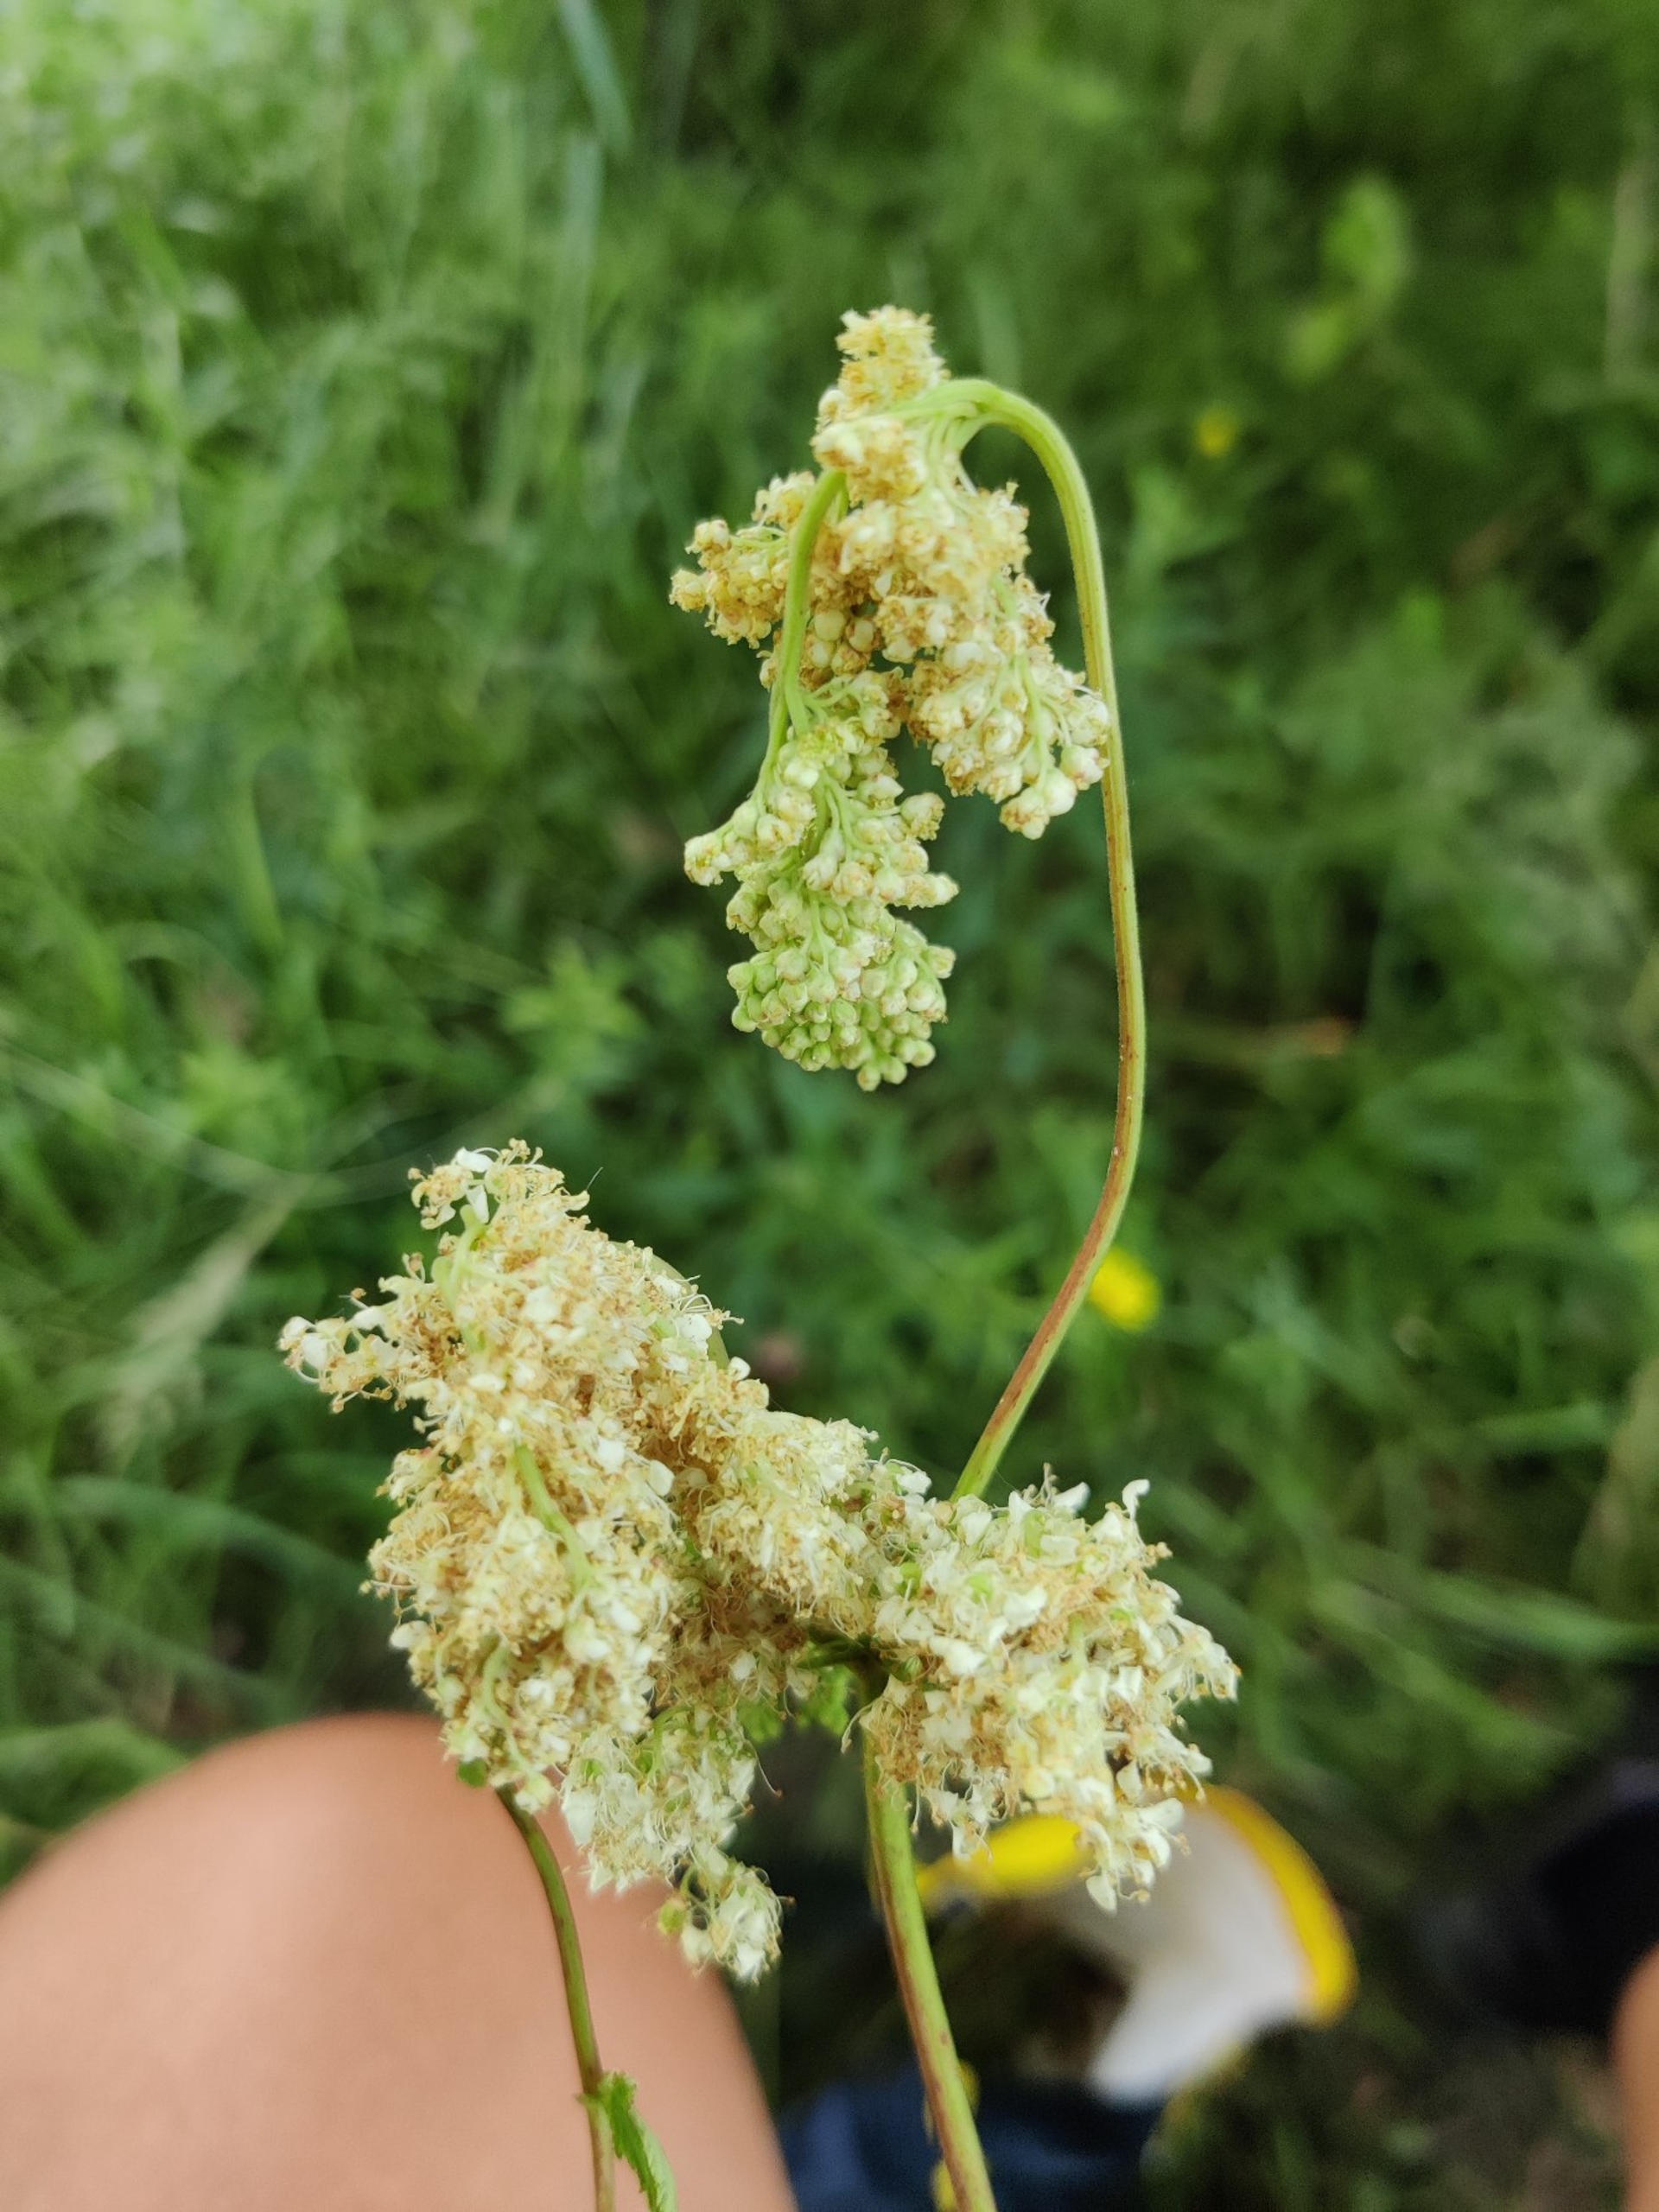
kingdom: Plantae
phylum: Tracheophyta
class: Magnoliopsida
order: Rosales
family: Rosaceae
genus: Filipendula
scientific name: Filipendula ulmaria
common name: Almindelig mjødurt
